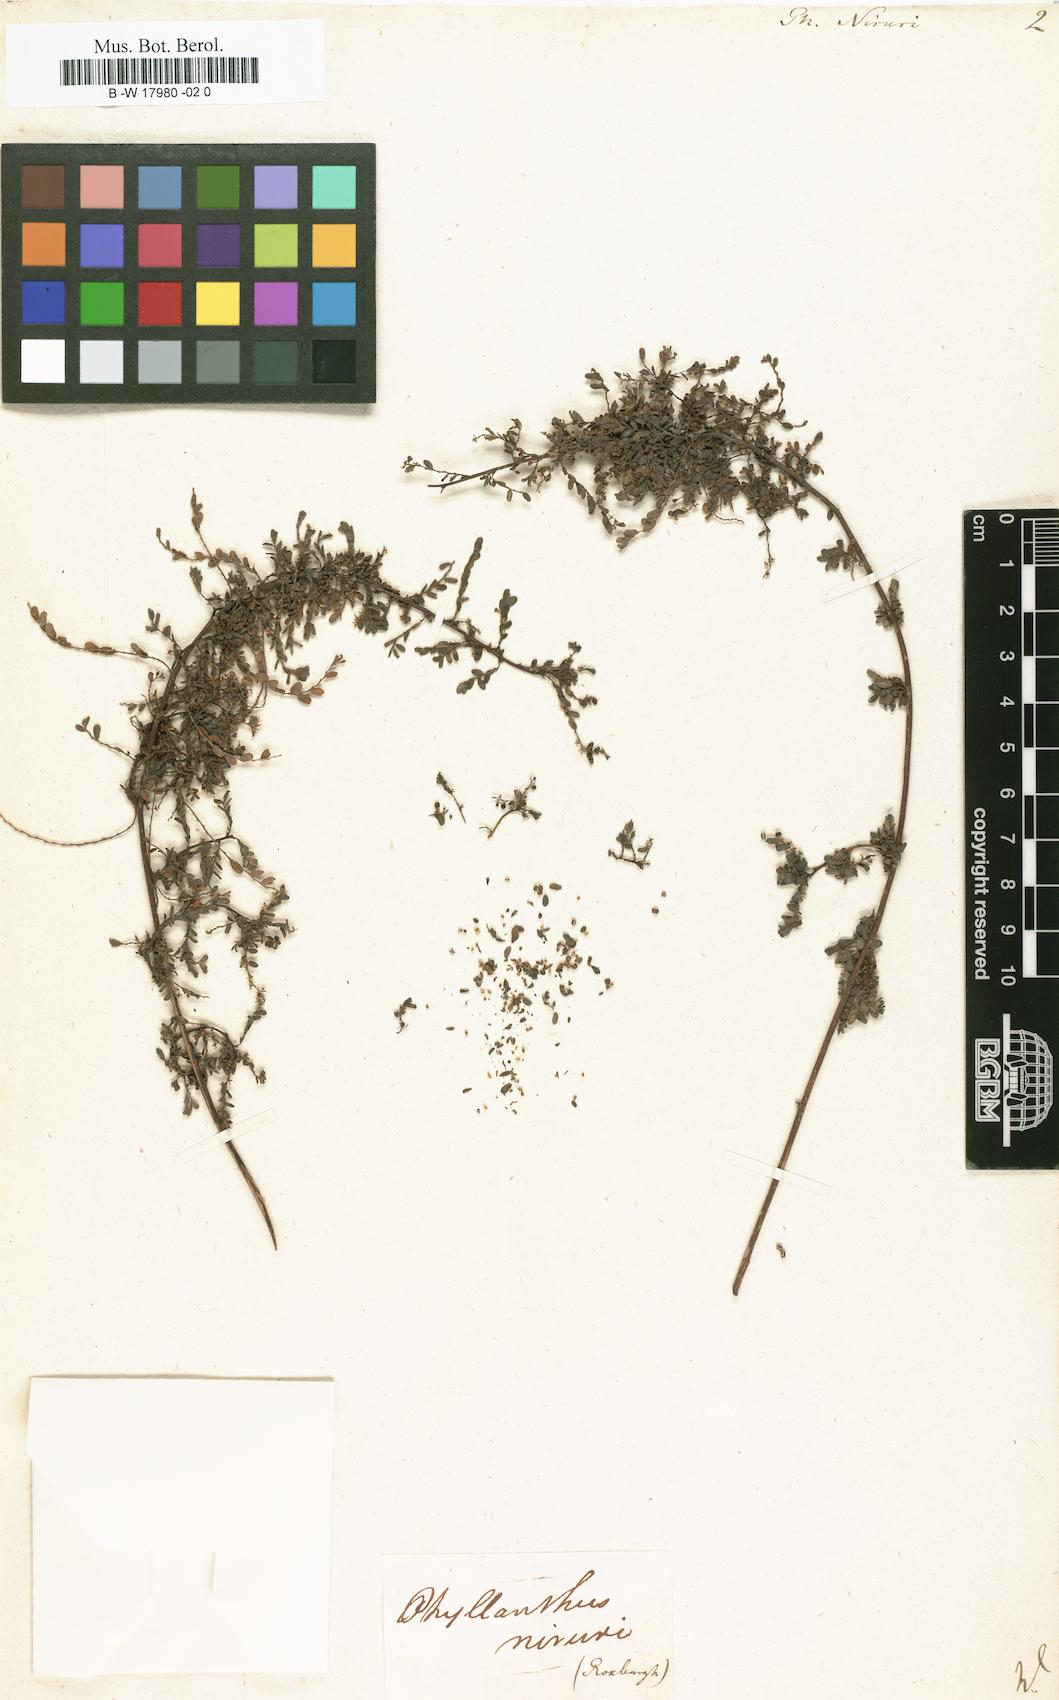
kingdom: Plantae
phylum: Tracheophyta
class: Magnoliopsida
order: Malpighiales
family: Phyllanthaceae
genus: Phyllanthus
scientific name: Phyllanthus niruri
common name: Niruri
